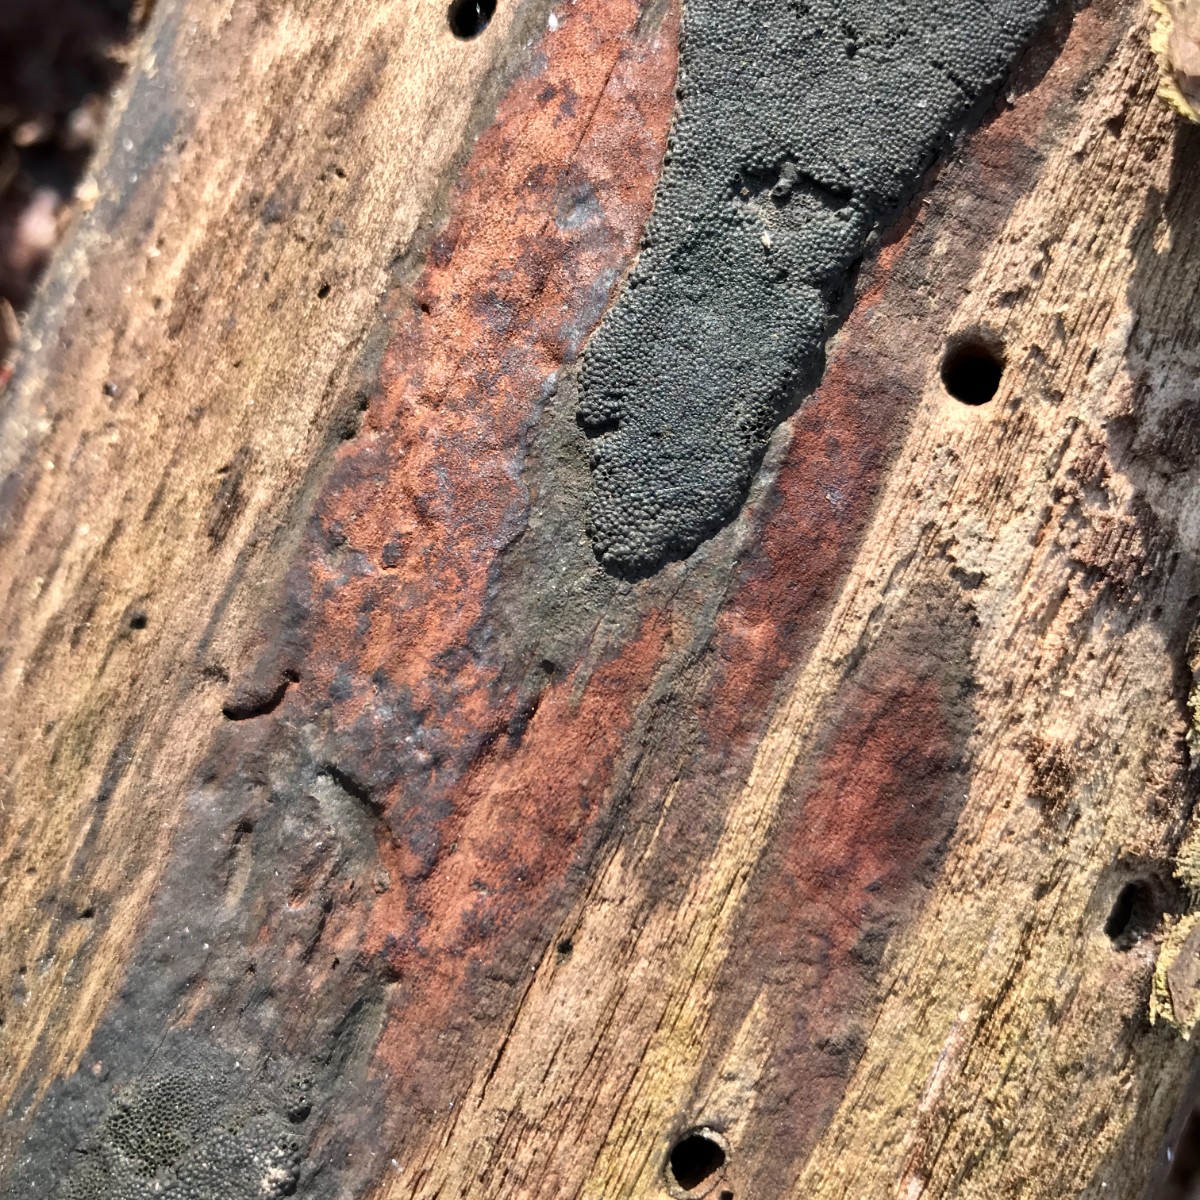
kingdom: Fungi
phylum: Ascomycota
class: Sordariomycetes
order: Xylariales
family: Hypoxylaceae
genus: Hypoxylon
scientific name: Hypoxylon petriniae
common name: nedsænket kulbær
